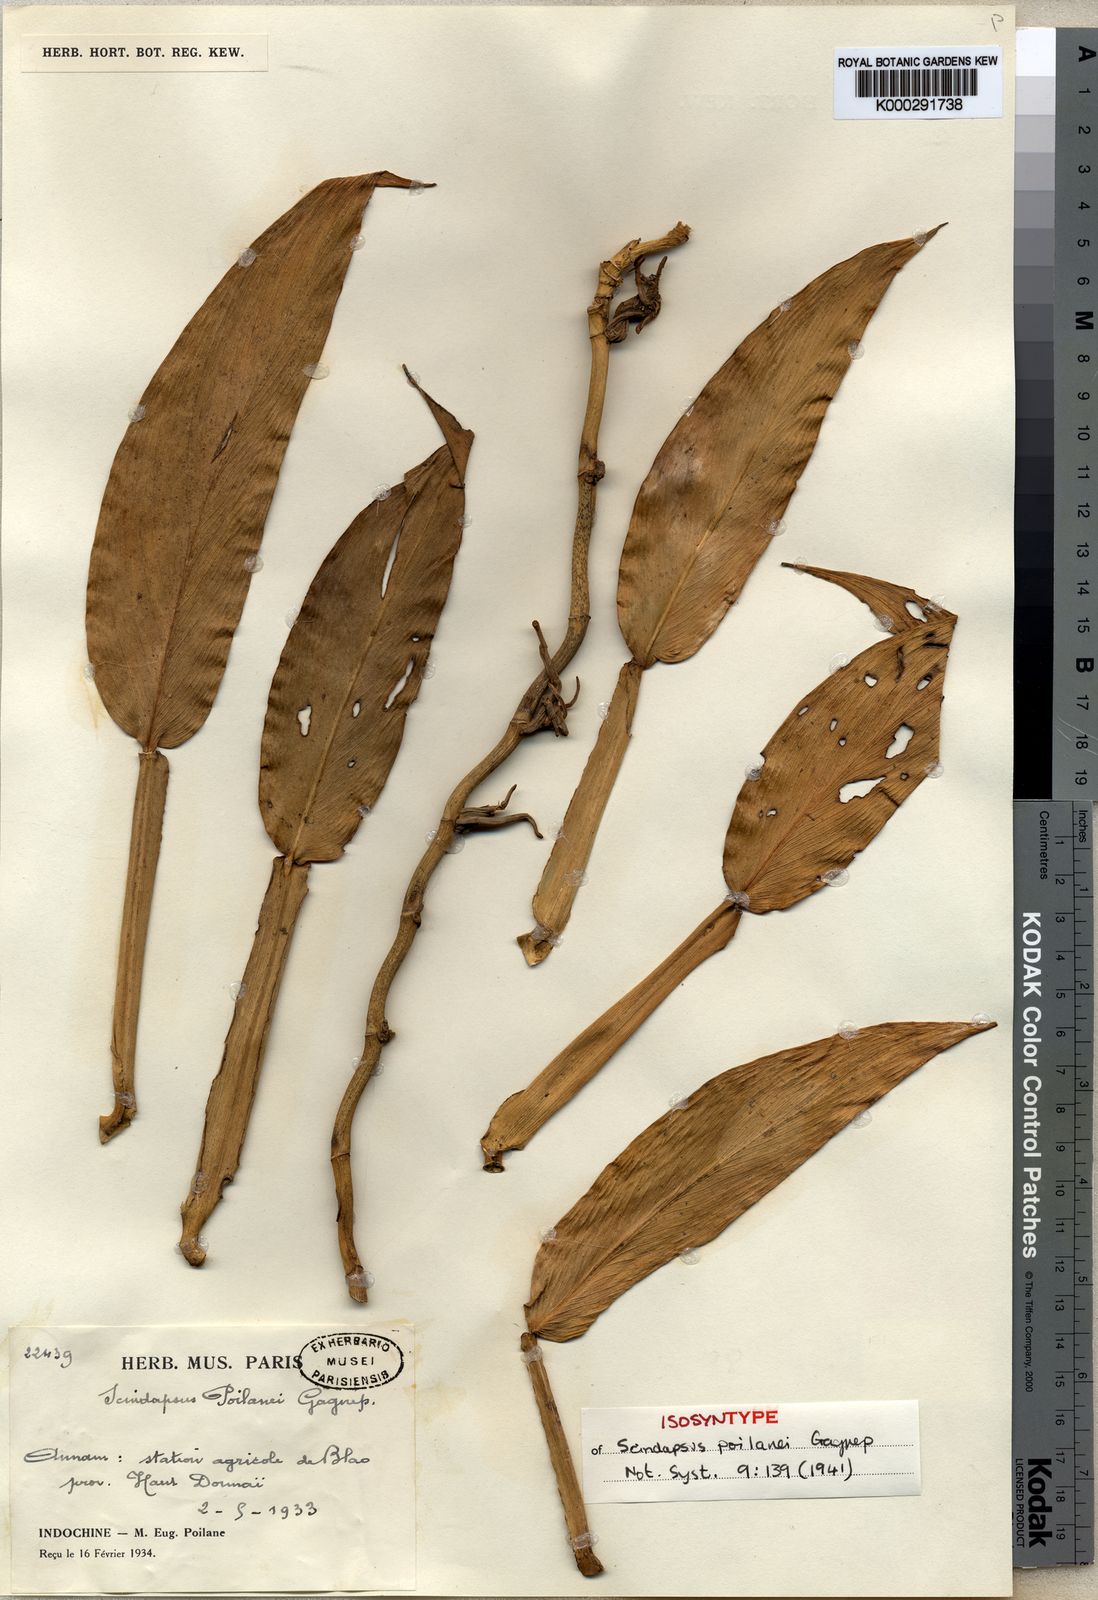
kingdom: Plantae
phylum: Tracheophyta
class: Liliopsida
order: Alismatales
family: Araceae
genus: Scindapsus
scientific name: Scindapsus
